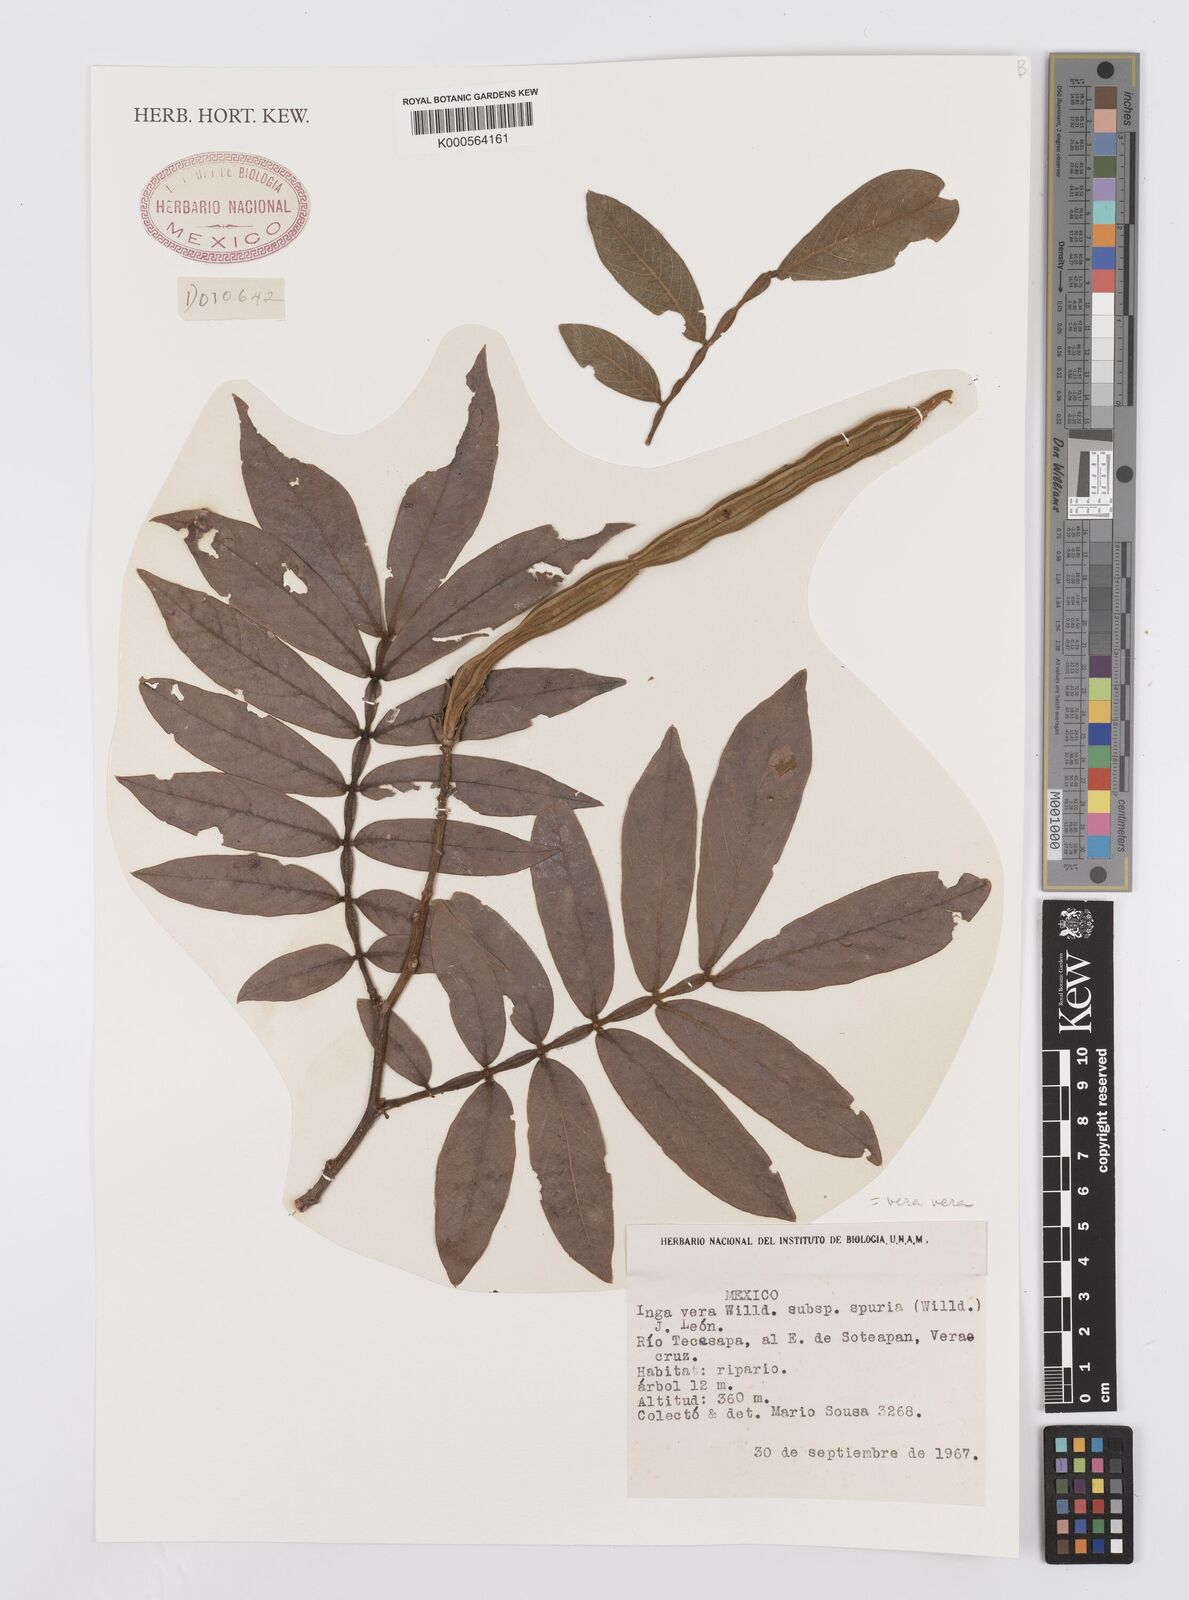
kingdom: Plantae
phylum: Tracheophyta
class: Magnoliopsida
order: Fabales
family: Fabaceae
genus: Inga
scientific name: Inga vera
